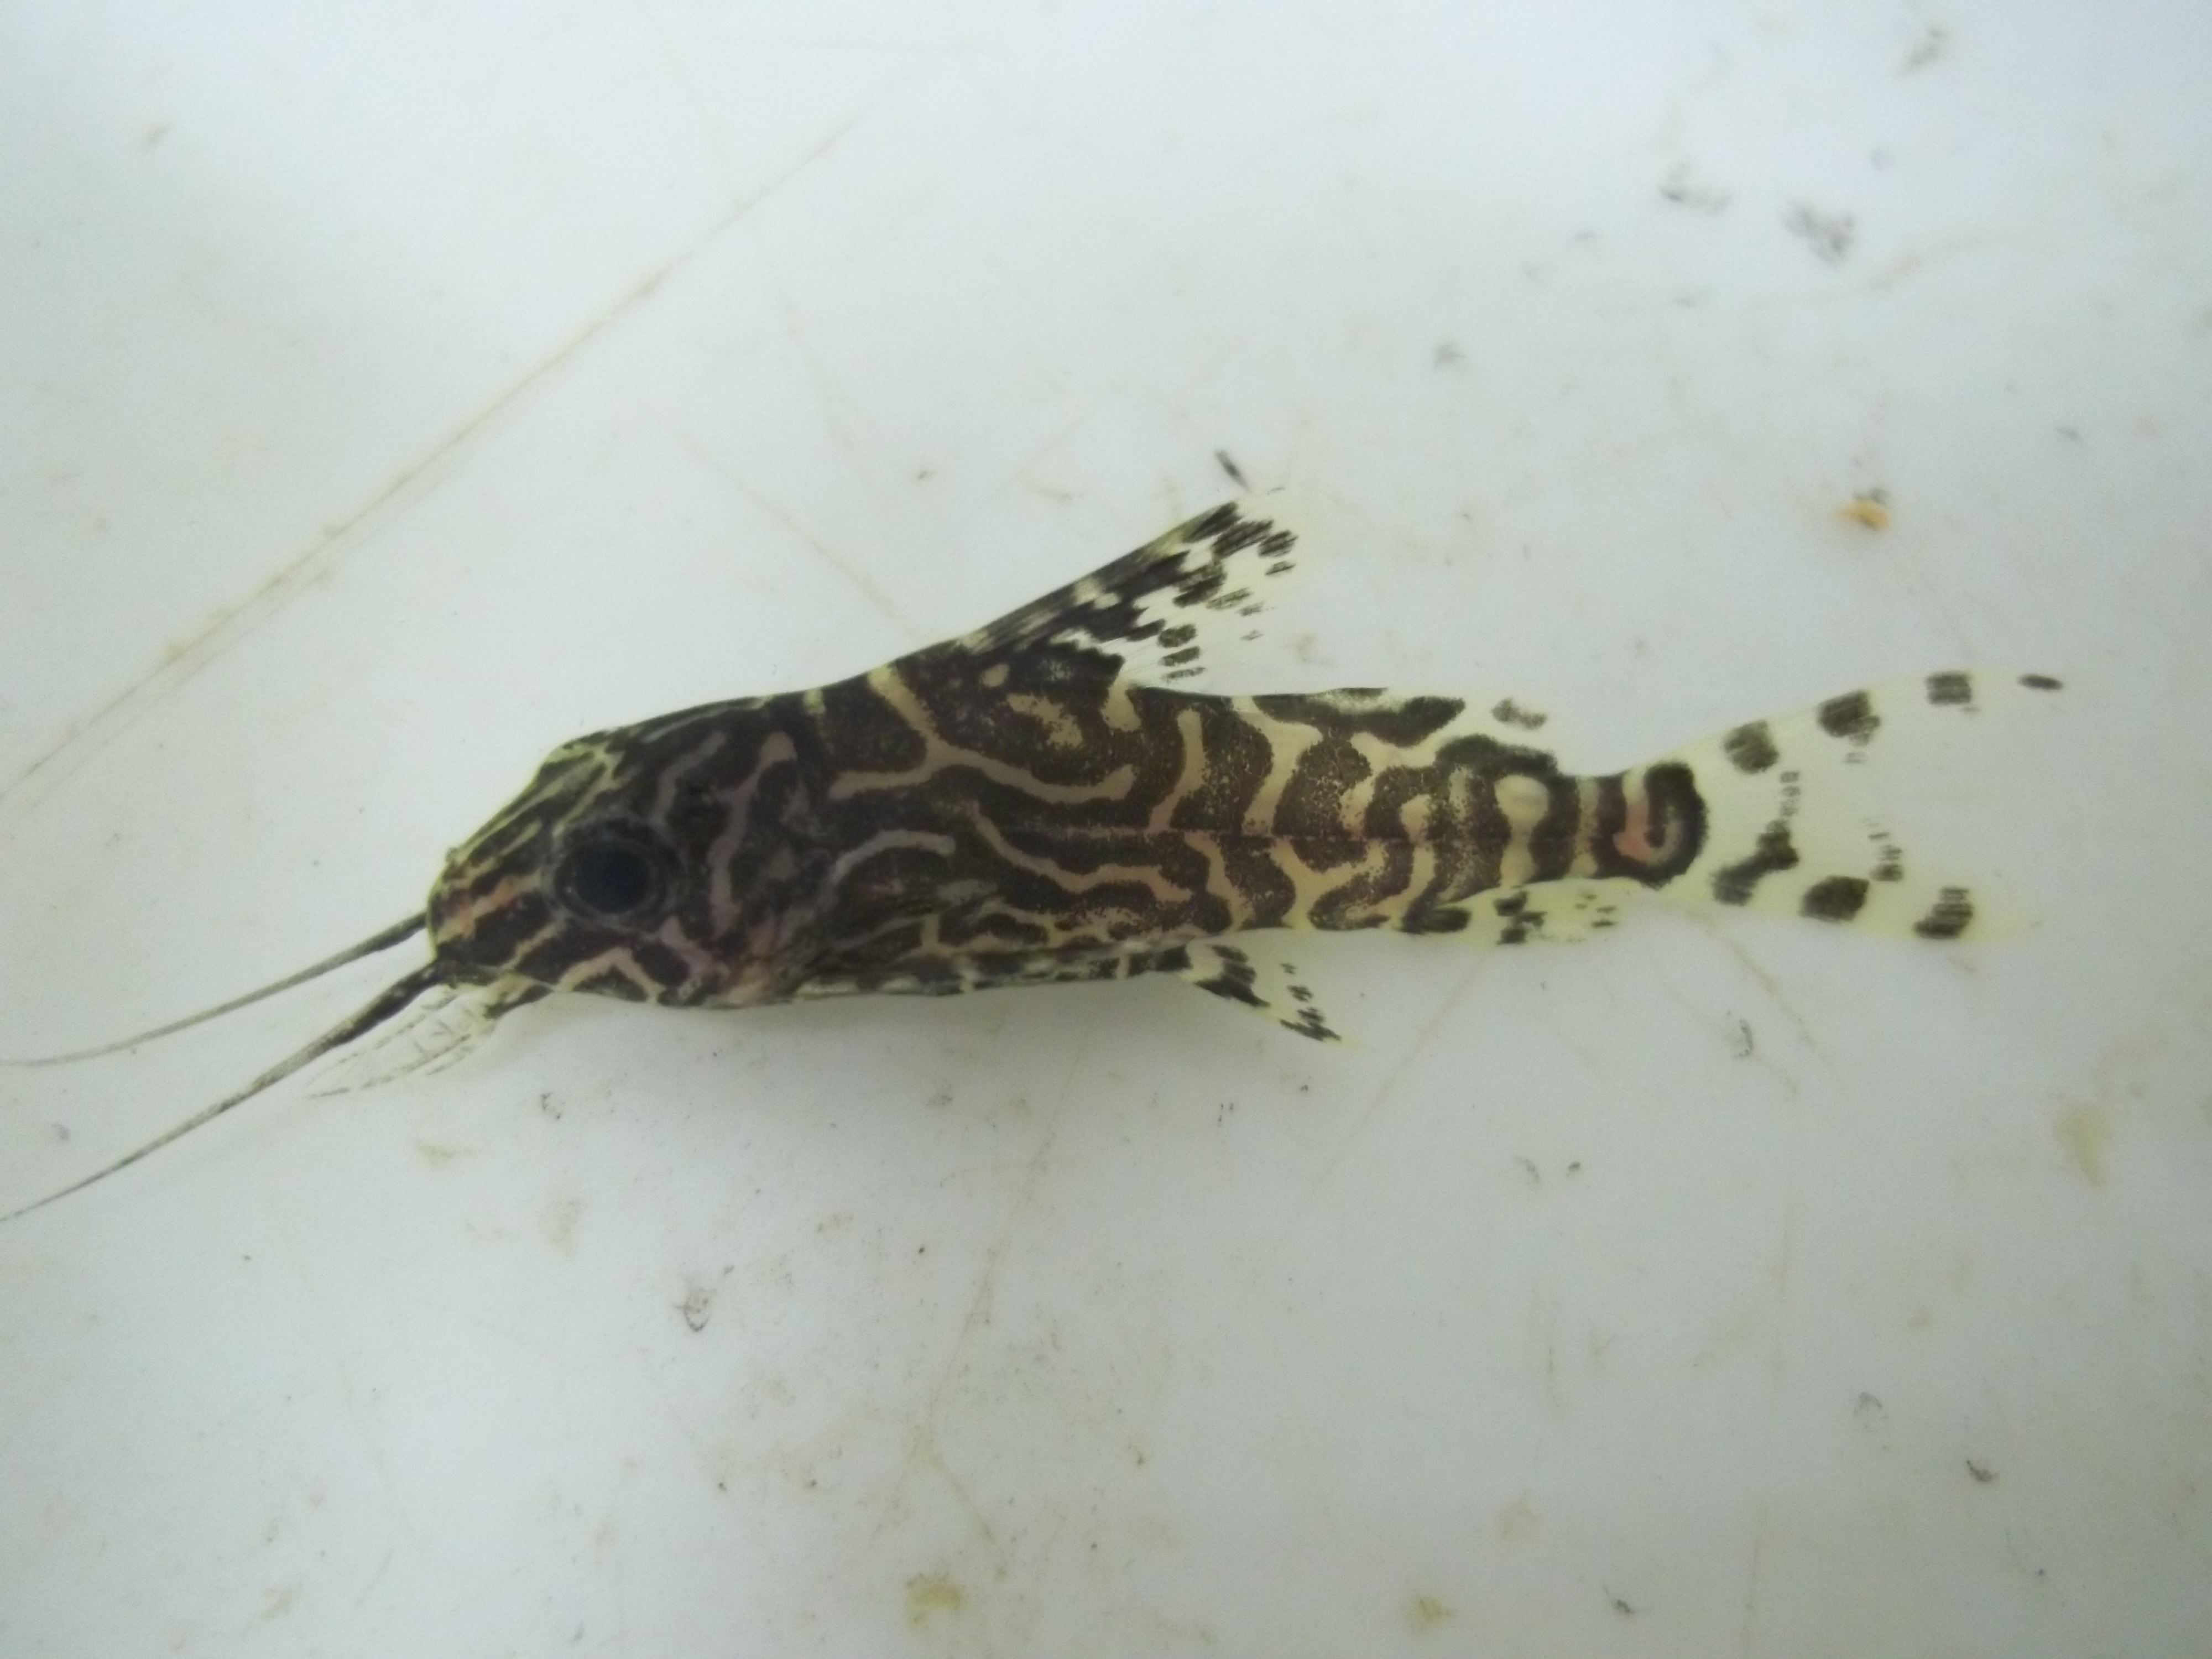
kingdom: Animalia
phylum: Chordata
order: Siluriformes
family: Mochokidae
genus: Synodontis
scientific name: Synodontis
